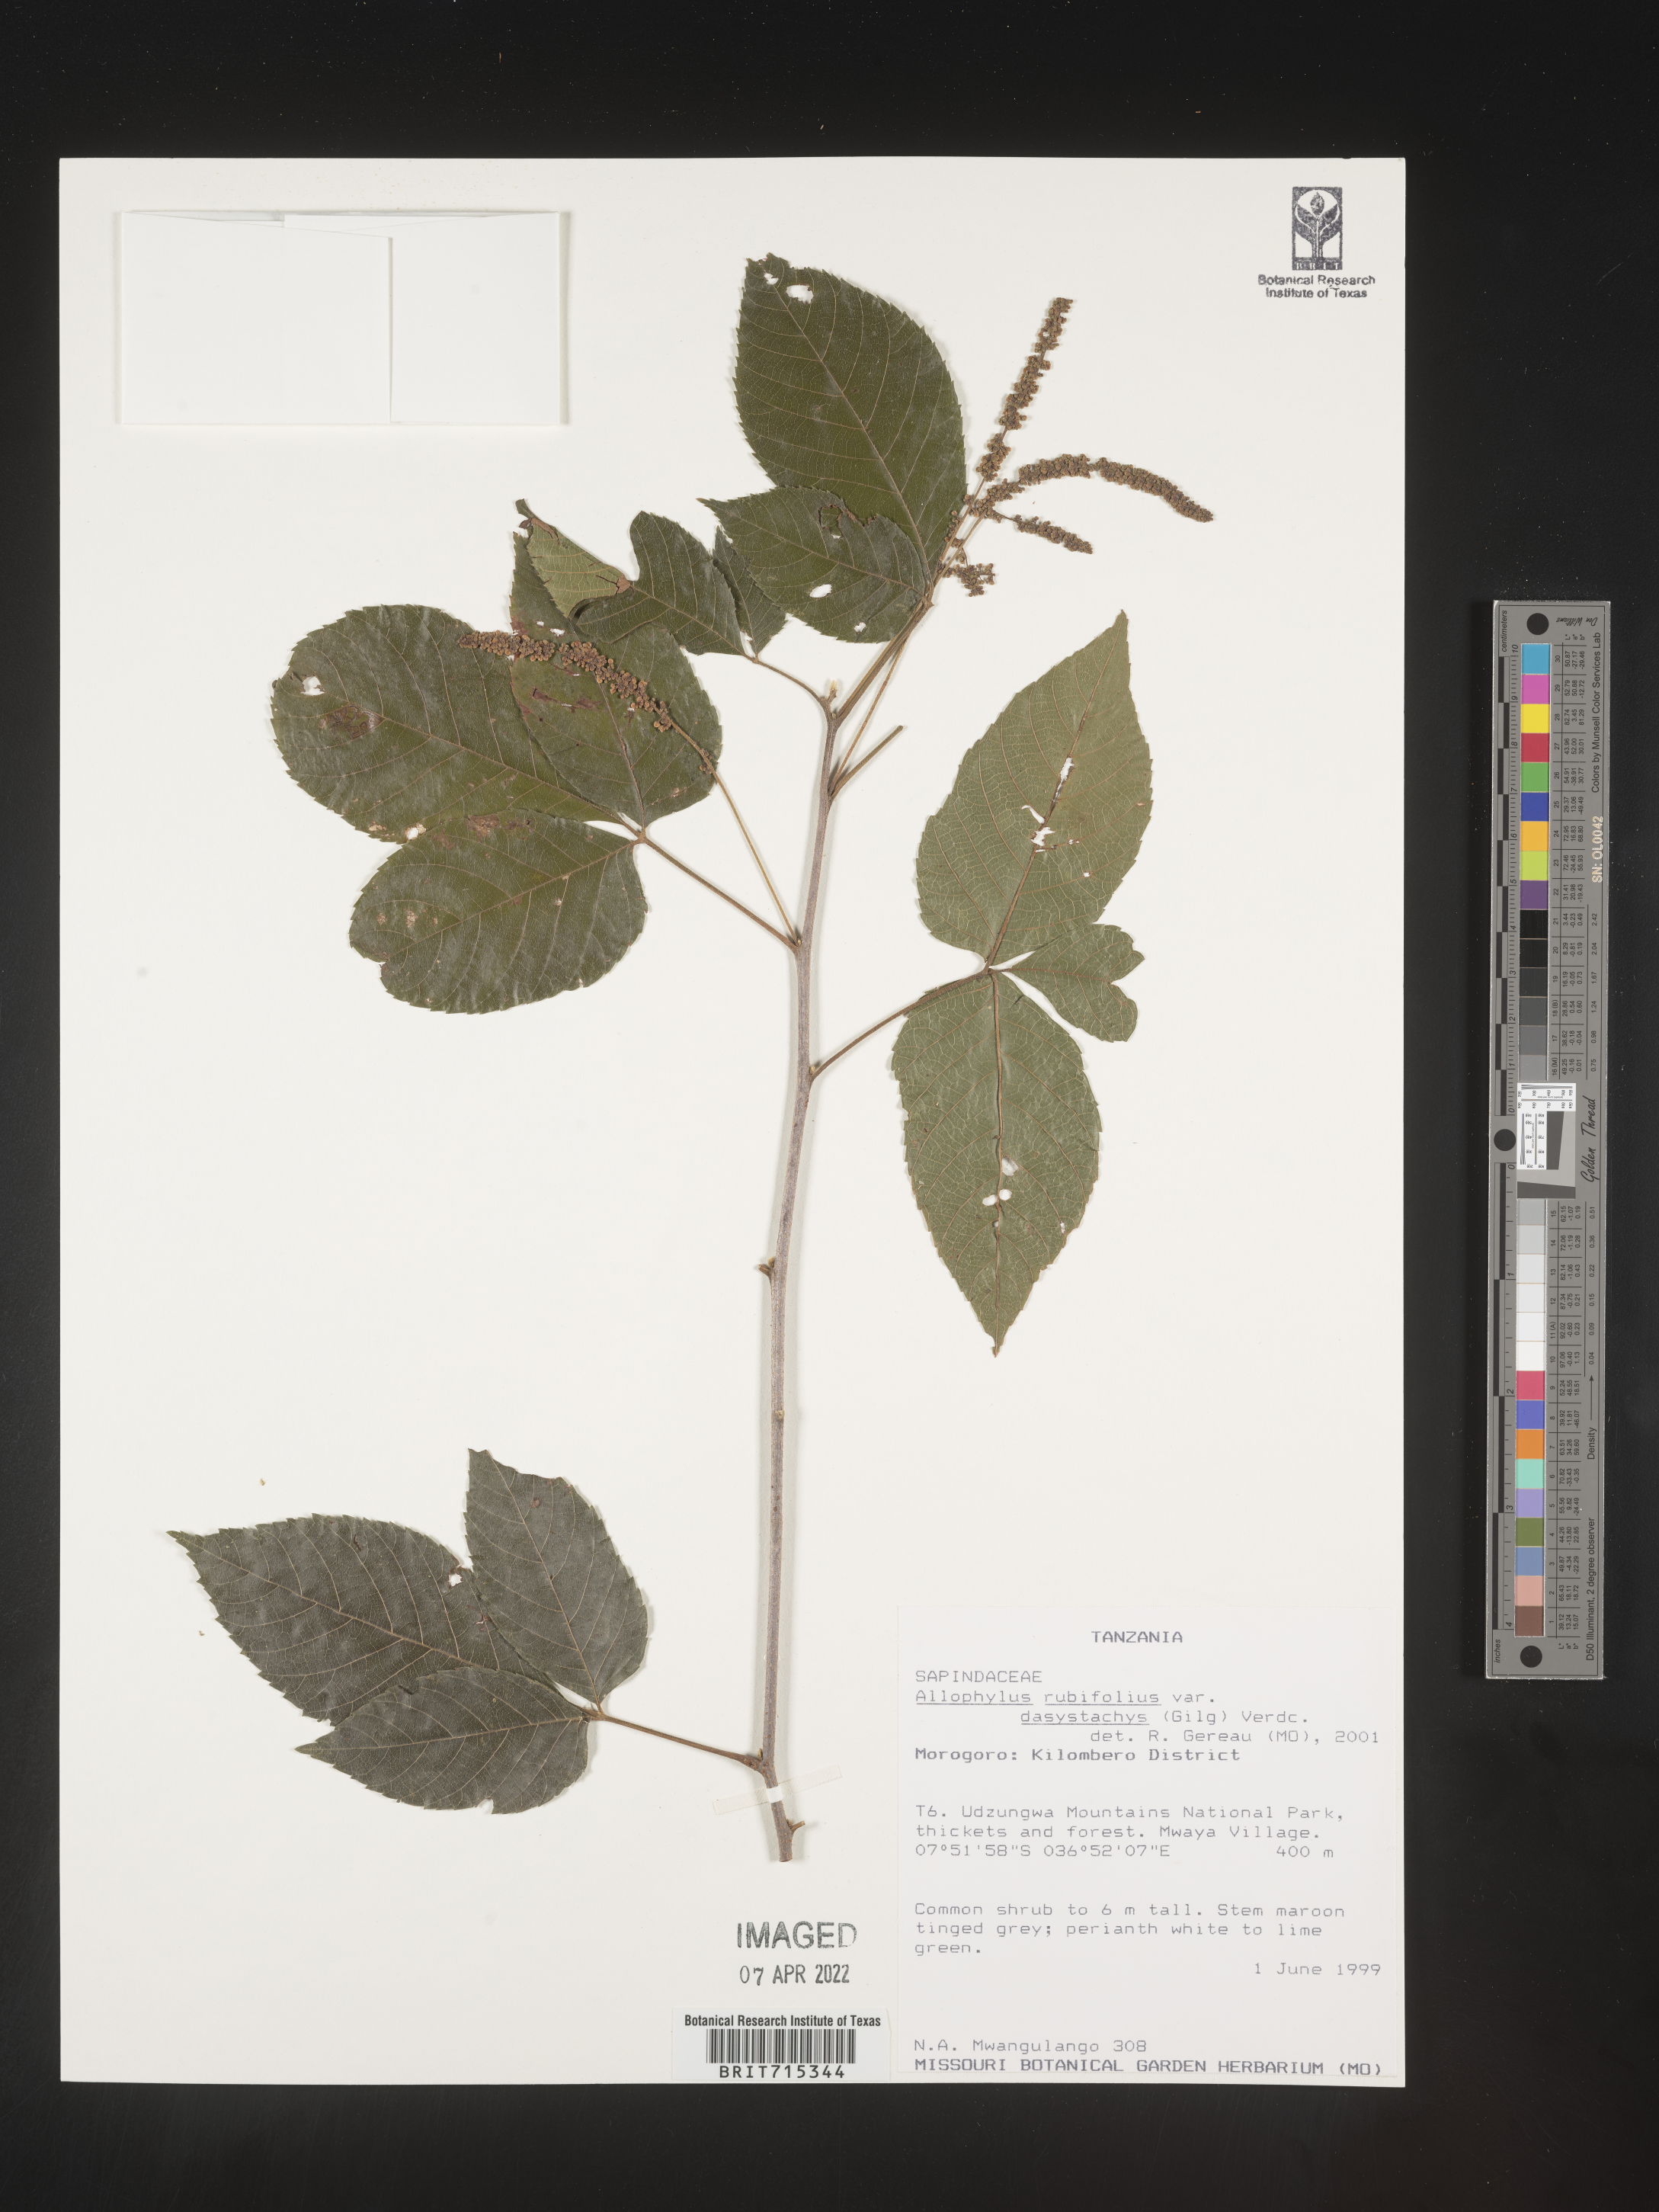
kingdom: Plantae
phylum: Tracheophyta
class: Magnoliopsida
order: Sapindales
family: Sapindaceae
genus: Allophylus
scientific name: Allophylus rubifolius
